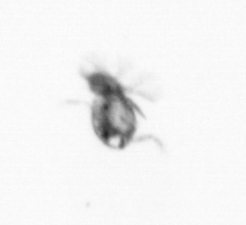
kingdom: Animalia
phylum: Arthropoda
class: Copepoda
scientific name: Copepoda
